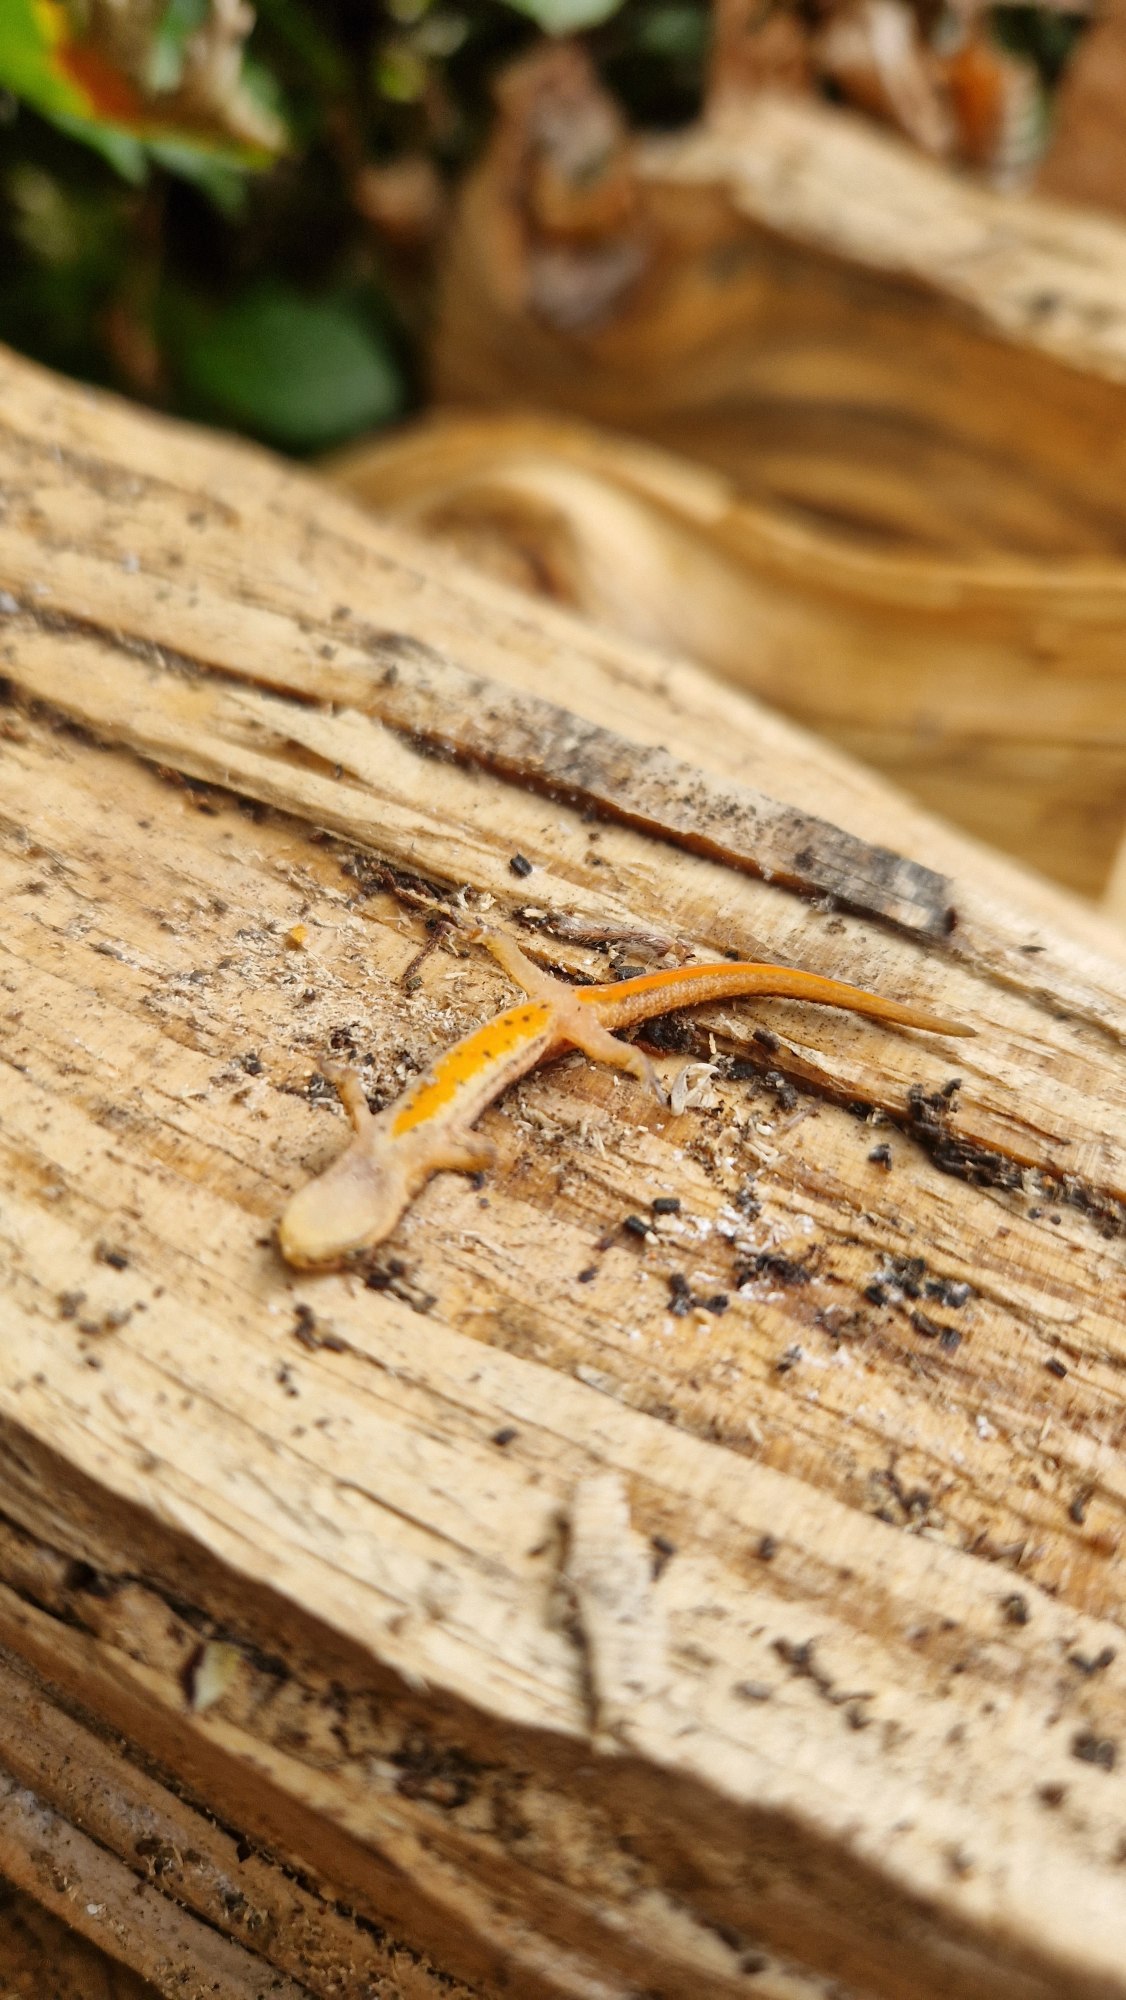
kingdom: Animalia
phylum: Chordata
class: Amphibia
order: Caudata
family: Salamandridae
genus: Lissotriton
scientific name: Lissotriton vulgaris
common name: Lille vandsalamander
